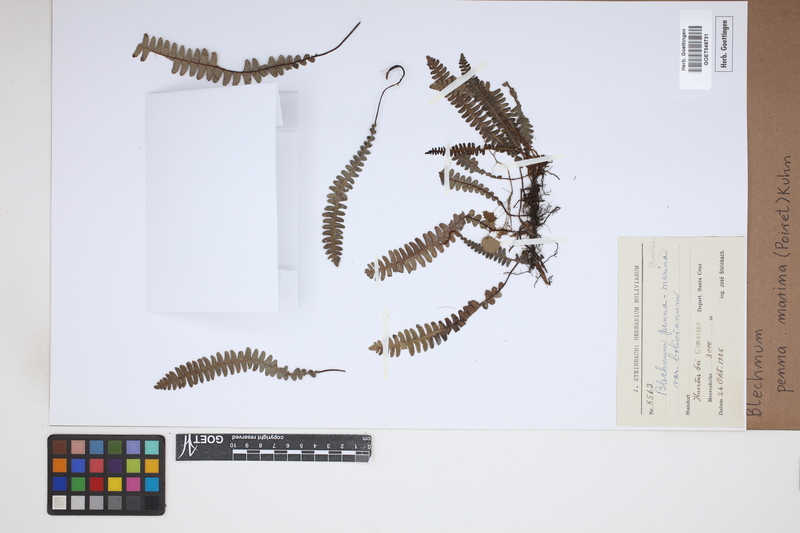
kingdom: Plantae
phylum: Tracheophyta
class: Polypodiopsida
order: Polypodiales
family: Blechnaceae
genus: Austroblechnum
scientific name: Austroblechnum penna-marina
